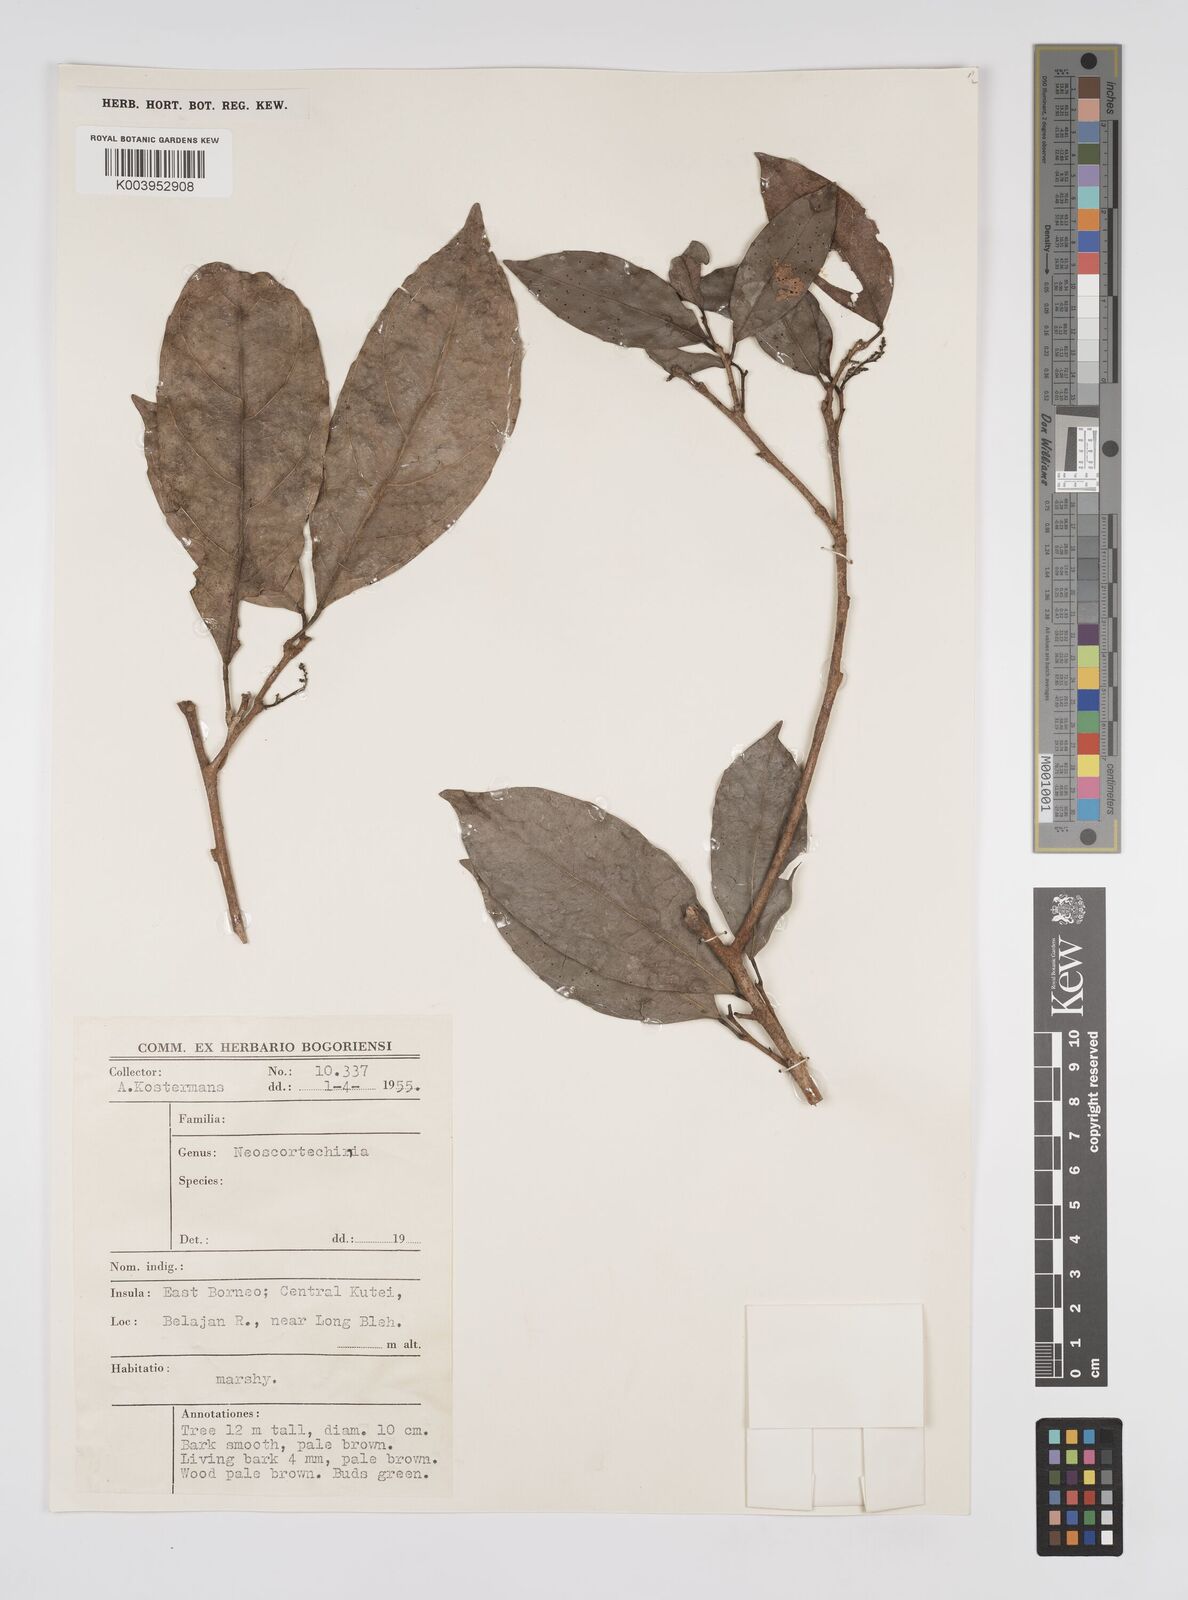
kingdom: Plantae
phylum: Tracheophyta
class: Magnoliopsida
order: Malpighiales
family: Euphorbiaceae
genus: Neoscortechinia
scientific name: Neoscortechinia philippinensis
